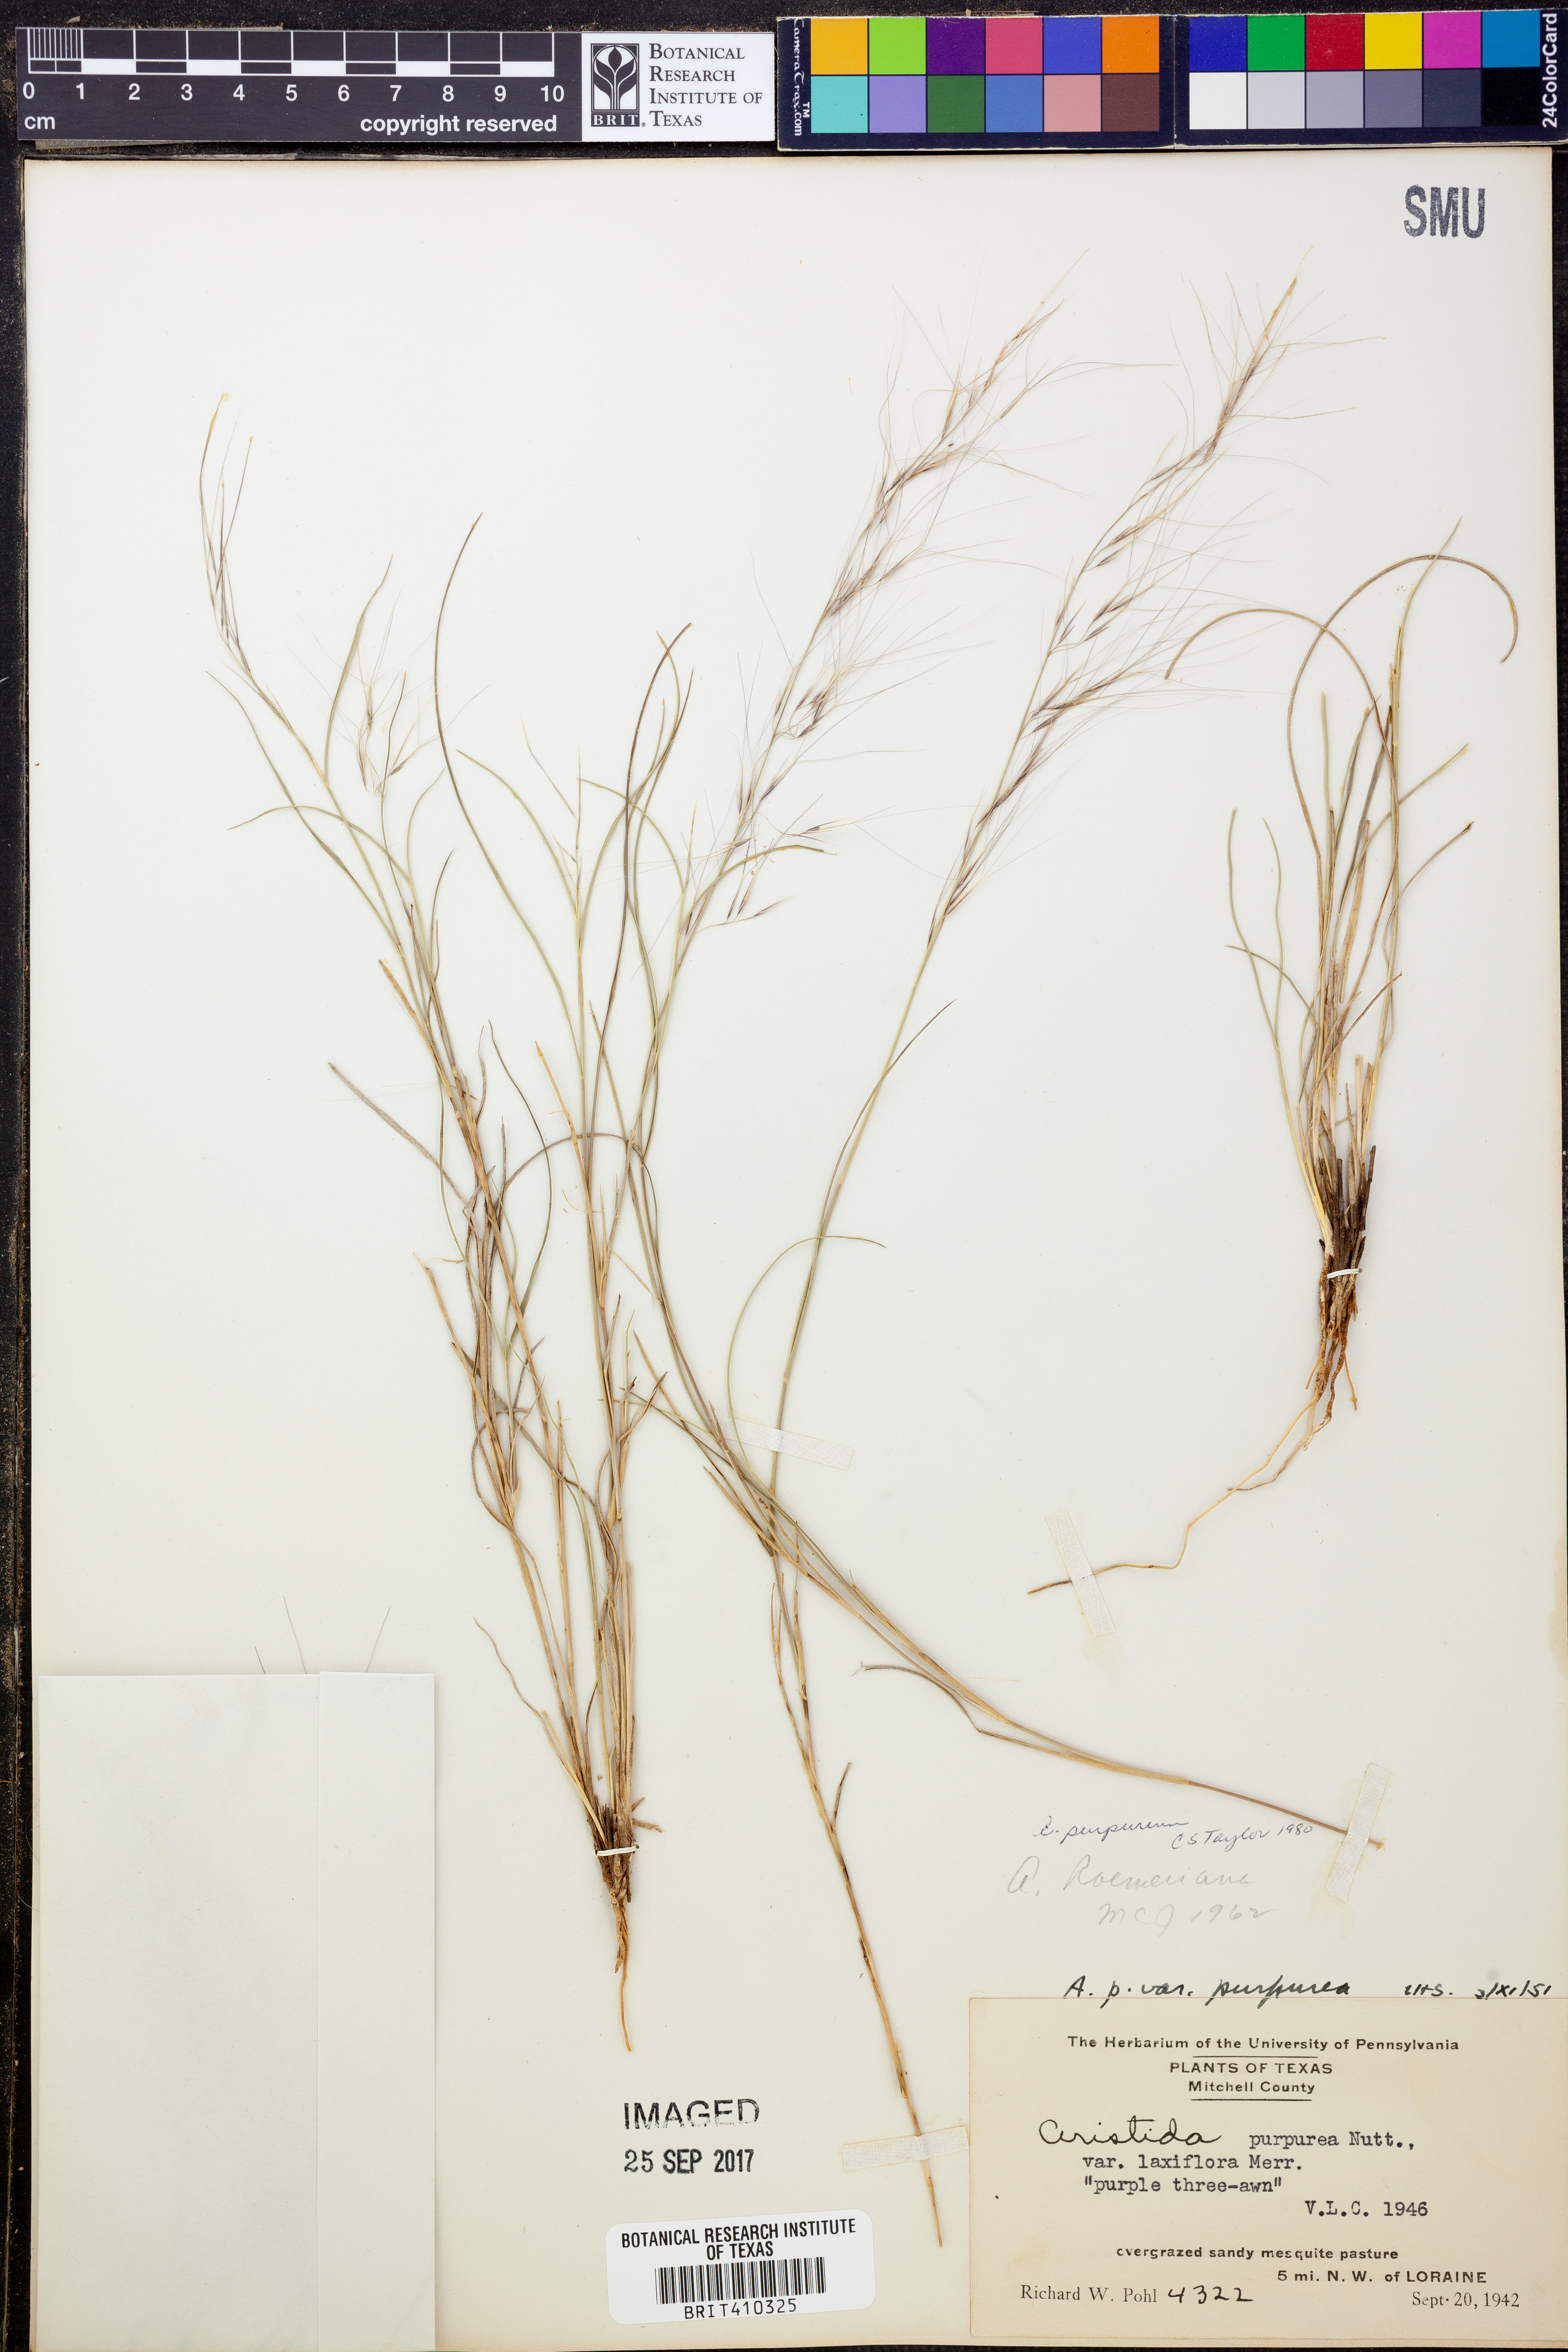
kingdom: Plantae
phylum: Tracheophyta
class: Liliopsida
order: Poales
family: Poaceae
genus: Aristida
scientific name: Aristida purpurea
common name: Purple threeawn
